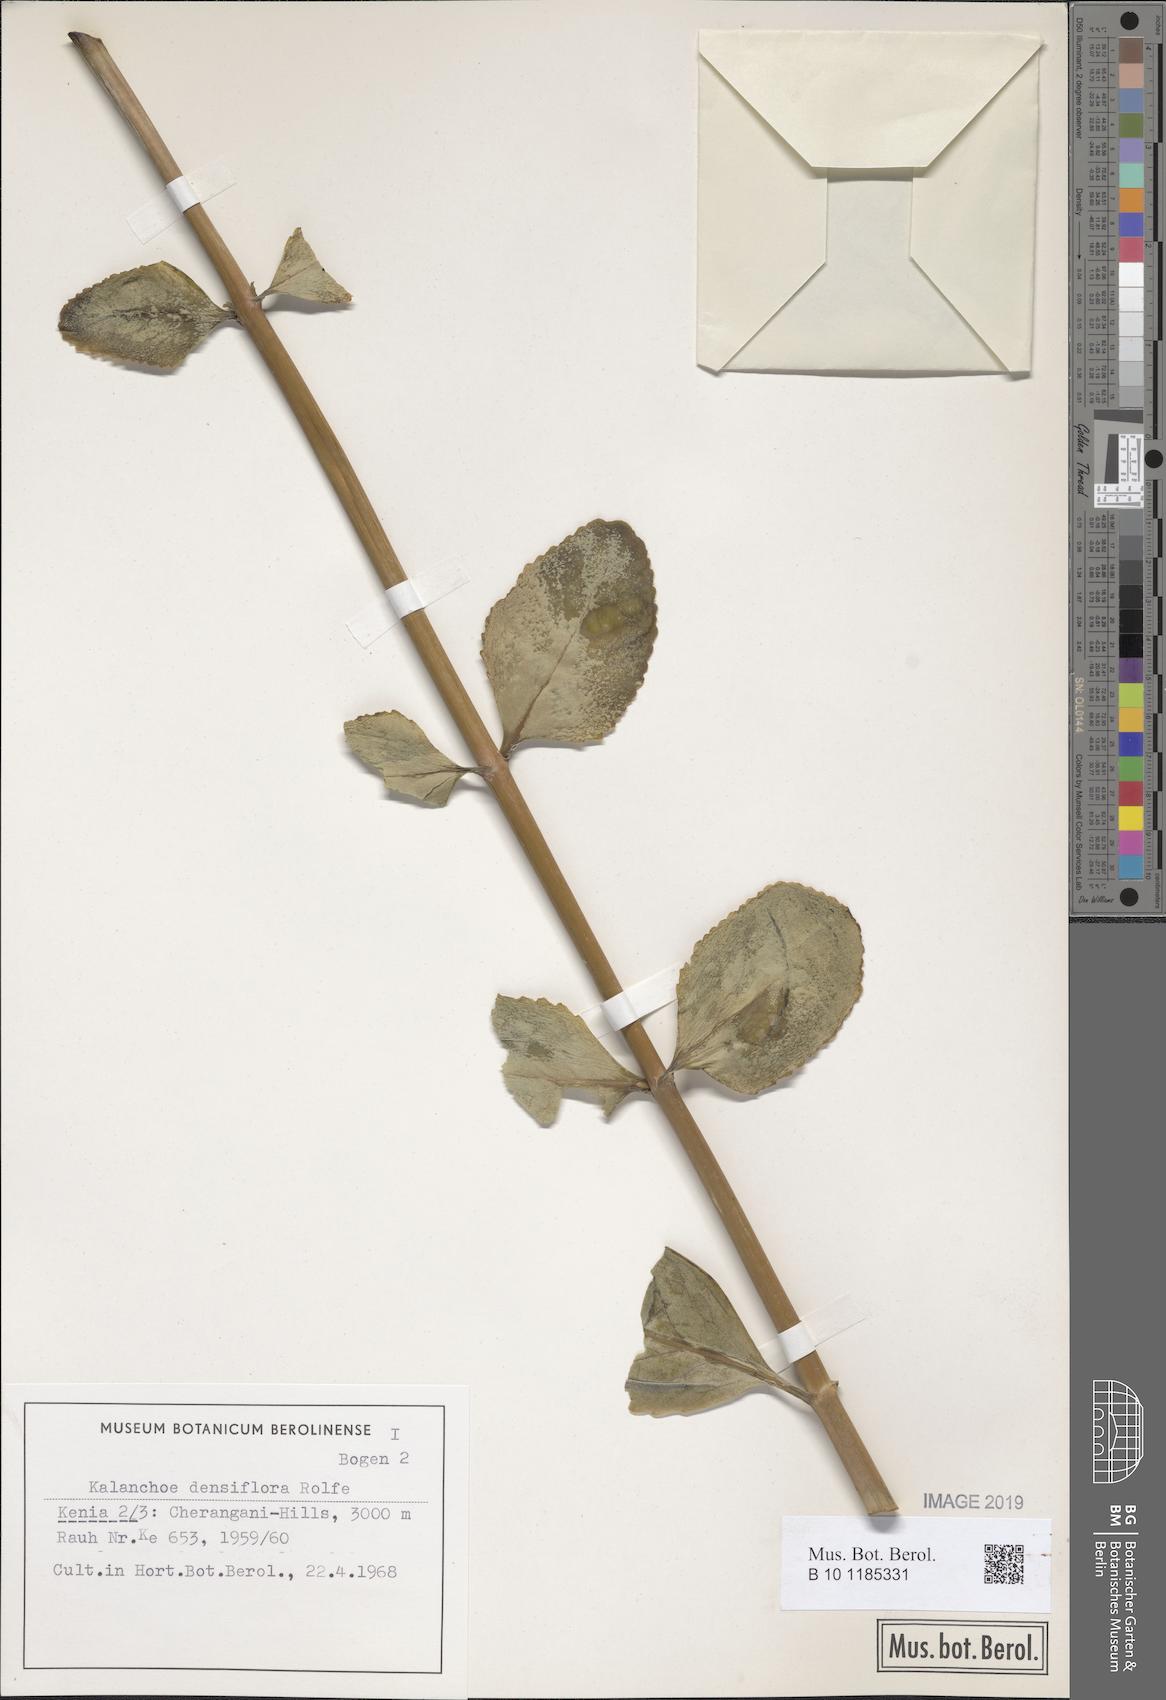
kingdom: Plantae
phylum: Tracheophyta
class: Magnoliopsida
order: Saxifragales
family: Crassulaceae
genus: Kalanchoe
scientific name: Kalanchoe densiflora
